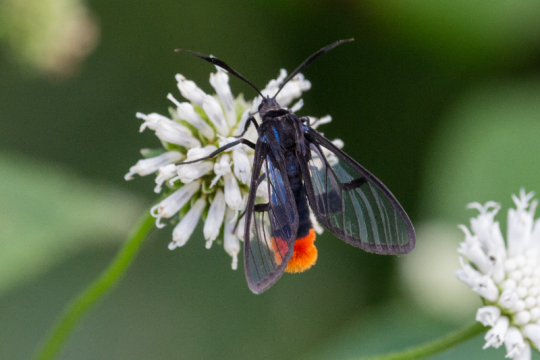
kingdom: Animalia
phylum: Arthropoda
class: Insecta
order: Lepidoptera
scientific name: Lepidoptera
